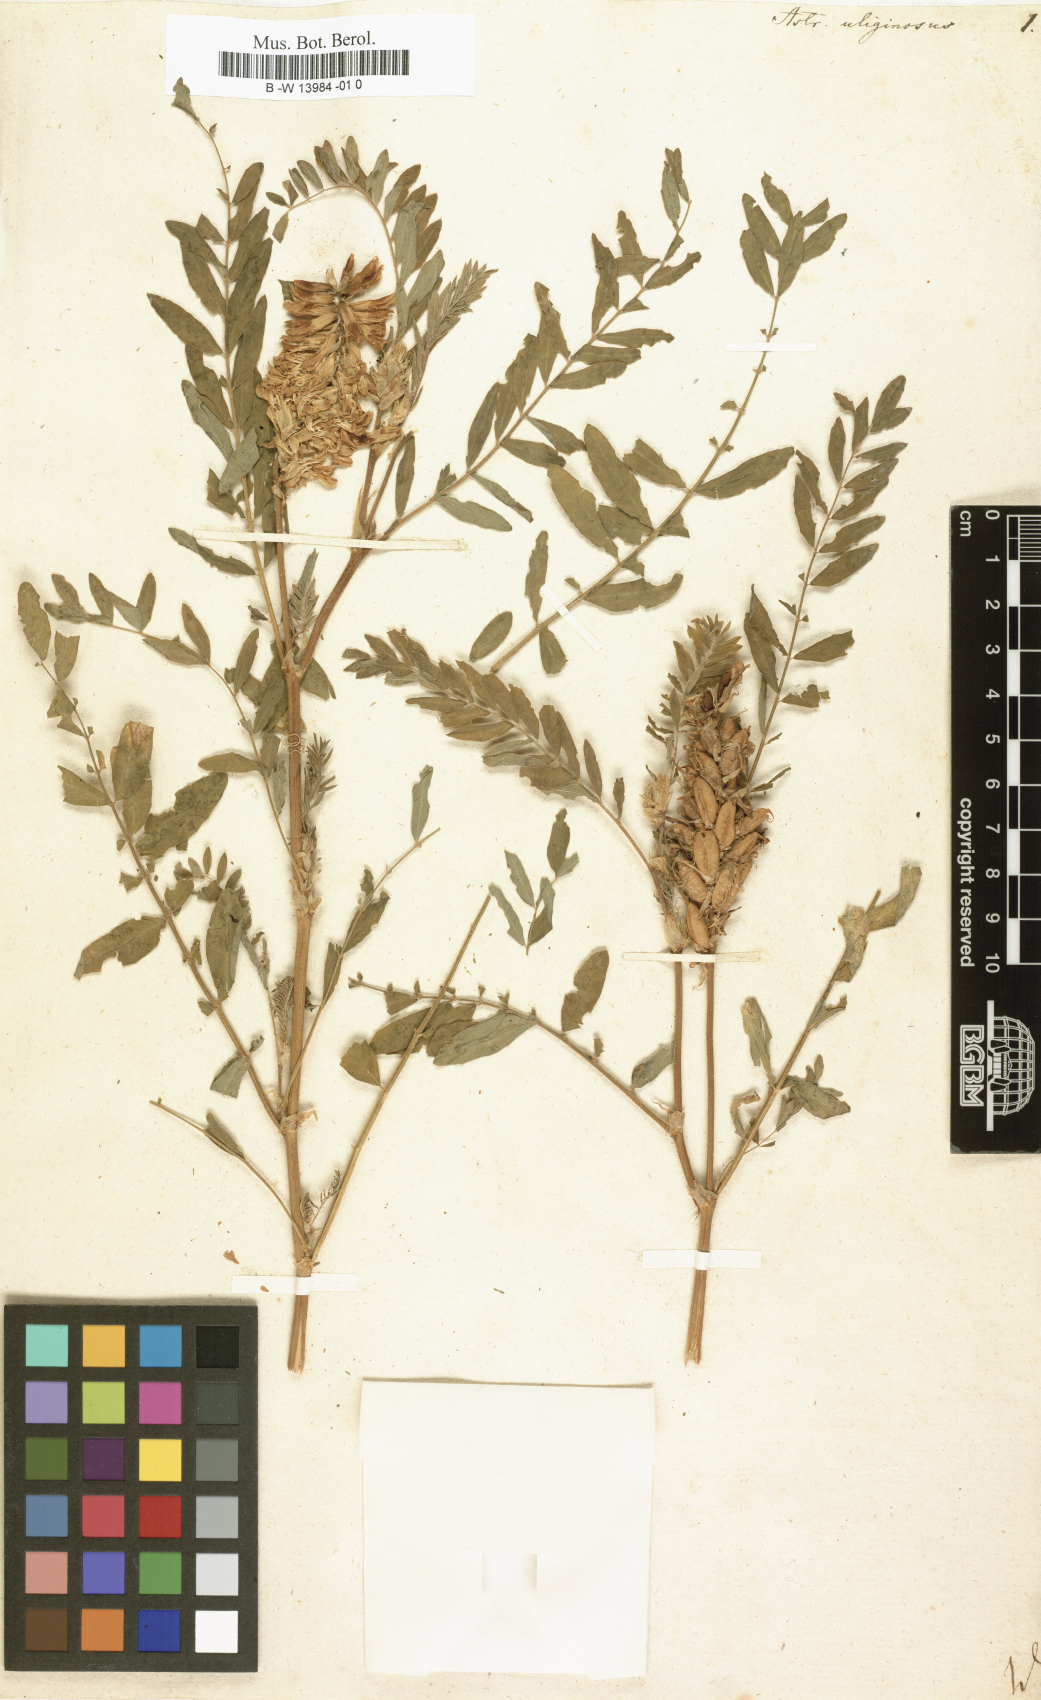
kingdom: Plantae
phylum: Tracheophyta
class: Magnoliopsida
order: Fabales
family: Fabaceae
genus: Astragalus
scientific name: Astragalus uliginosus
